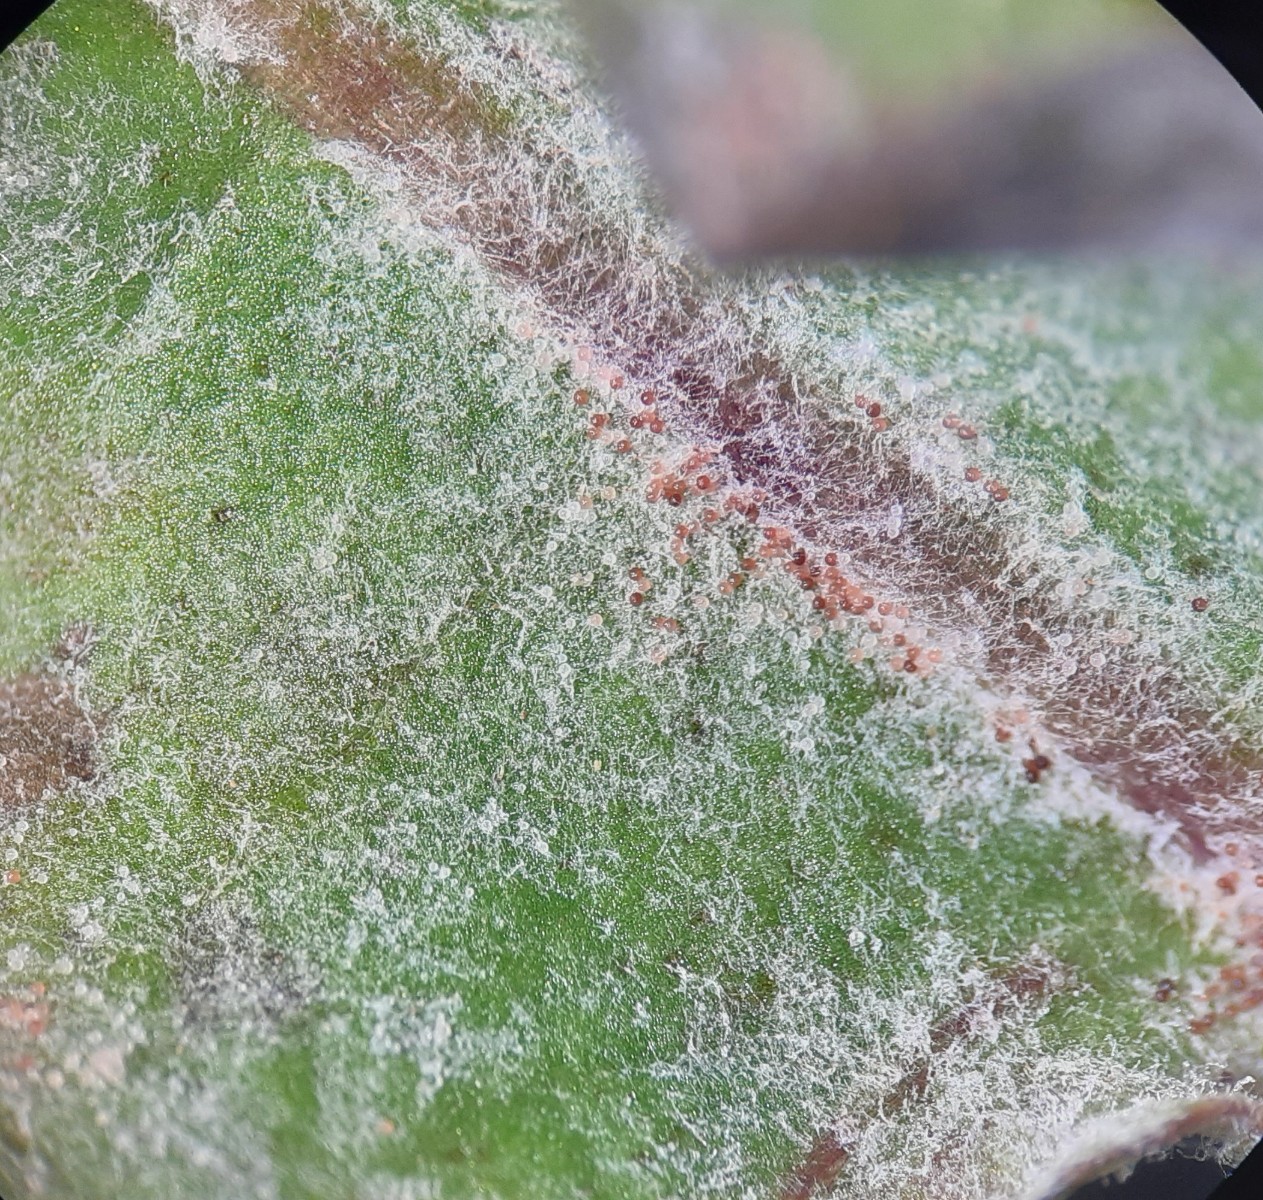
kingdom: Fungi
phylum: Ascomycota
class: Leotiomycetes
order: Helotiales
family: Erysiphaceae
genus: Podosphaera
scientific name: Podosphaera erigerontis-canadensis
